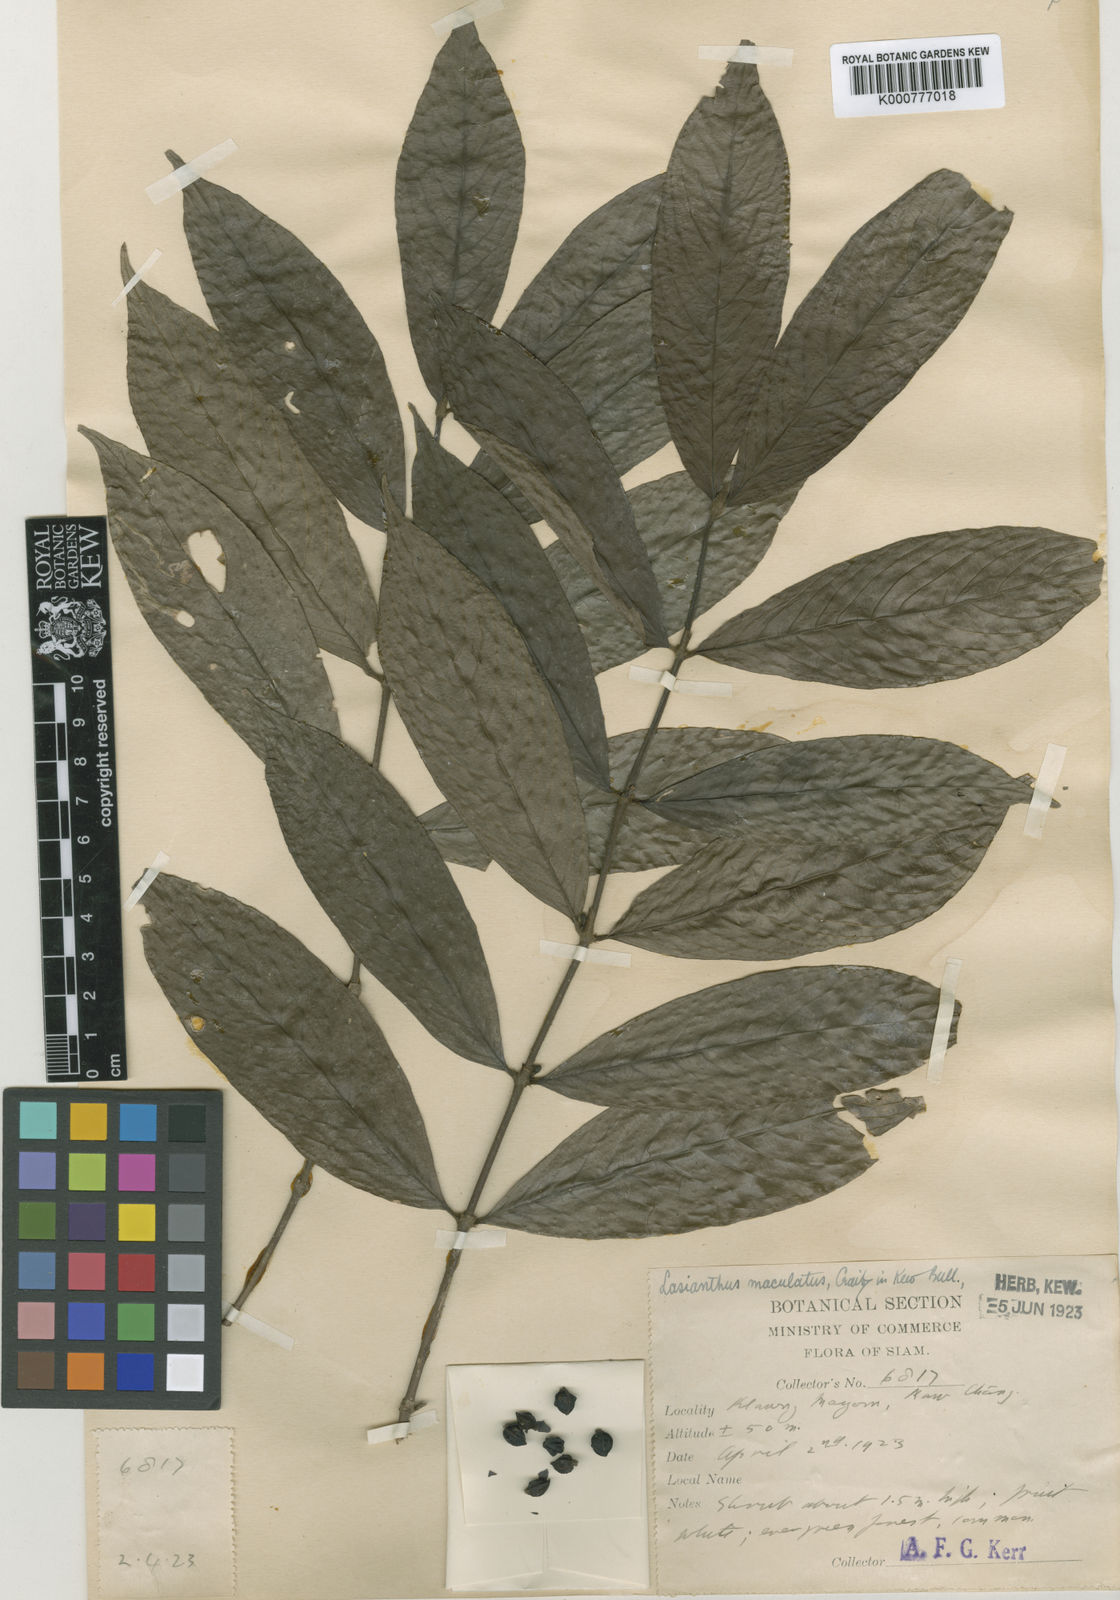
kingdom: Plantae
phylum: Tracheophyta
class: Magnoliopsida
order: Gentianales
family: Rubiaceae
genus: Lasianthus
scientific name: Lasianthus maculatus
